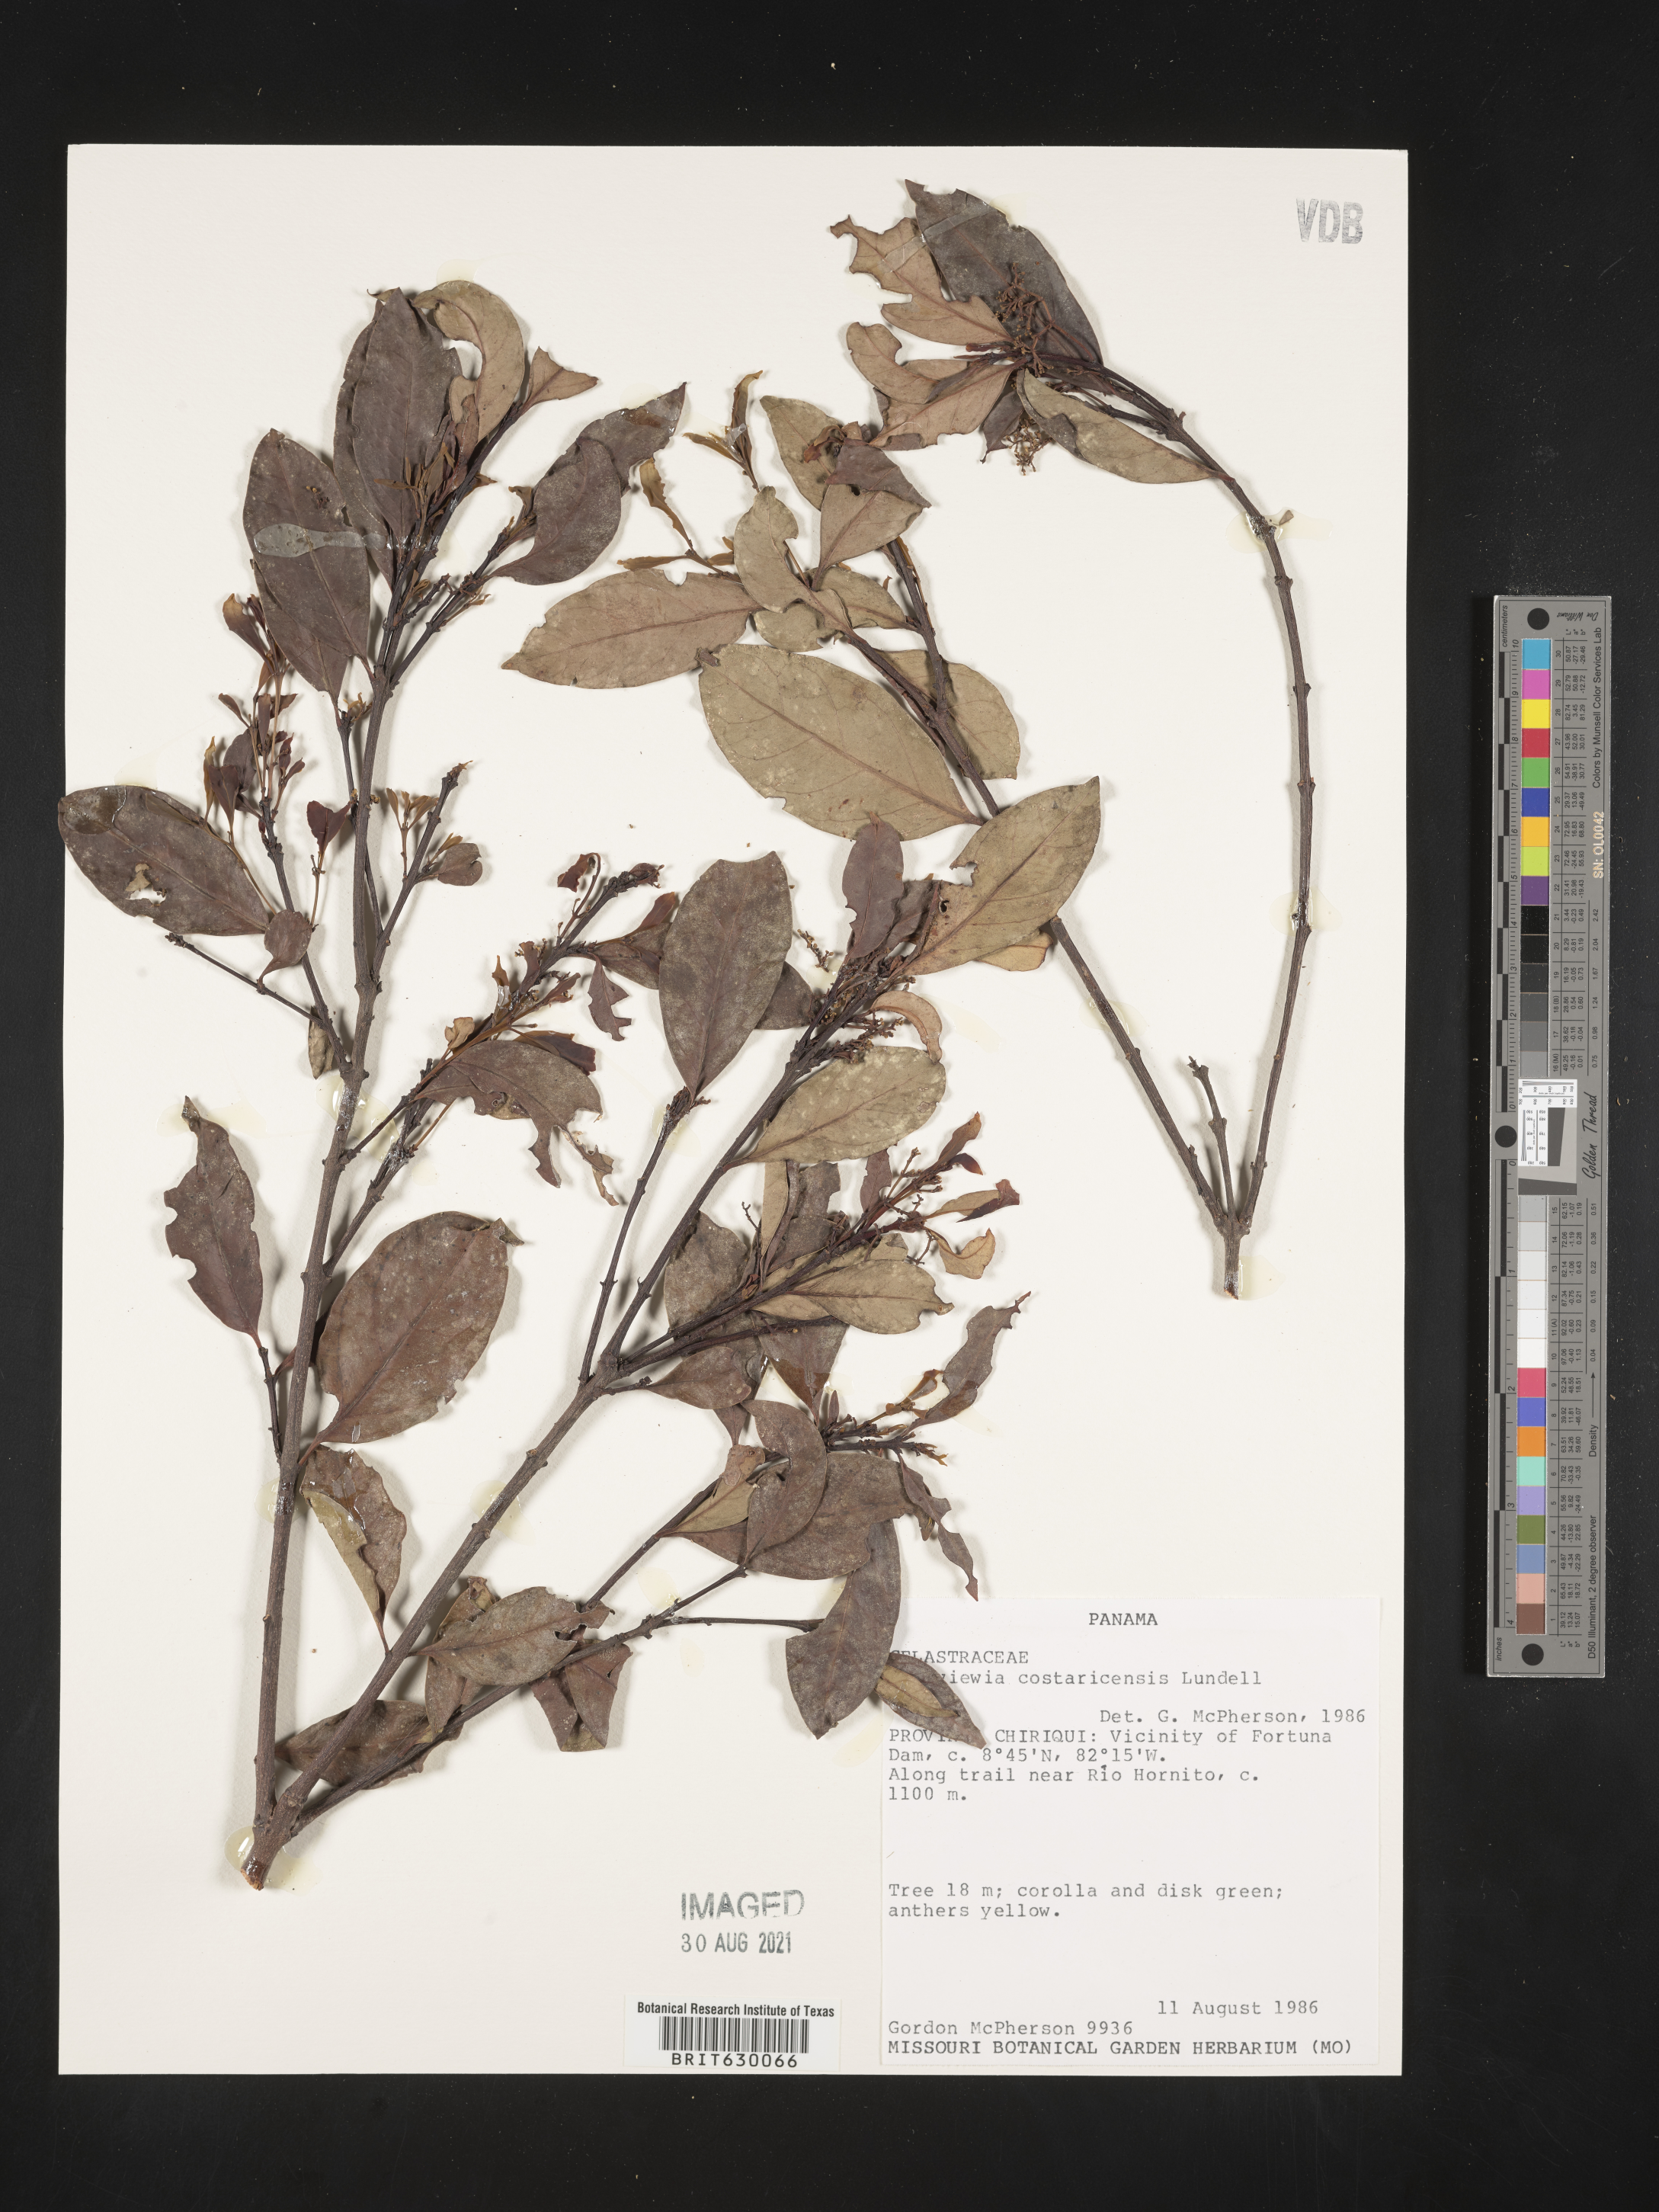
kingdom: Plantae
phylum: Tracheophyta
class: Magnoliopsida
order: Celastrales
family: Celastraceae
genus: Zinowiewia
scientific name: Zinowiewia integerrima
